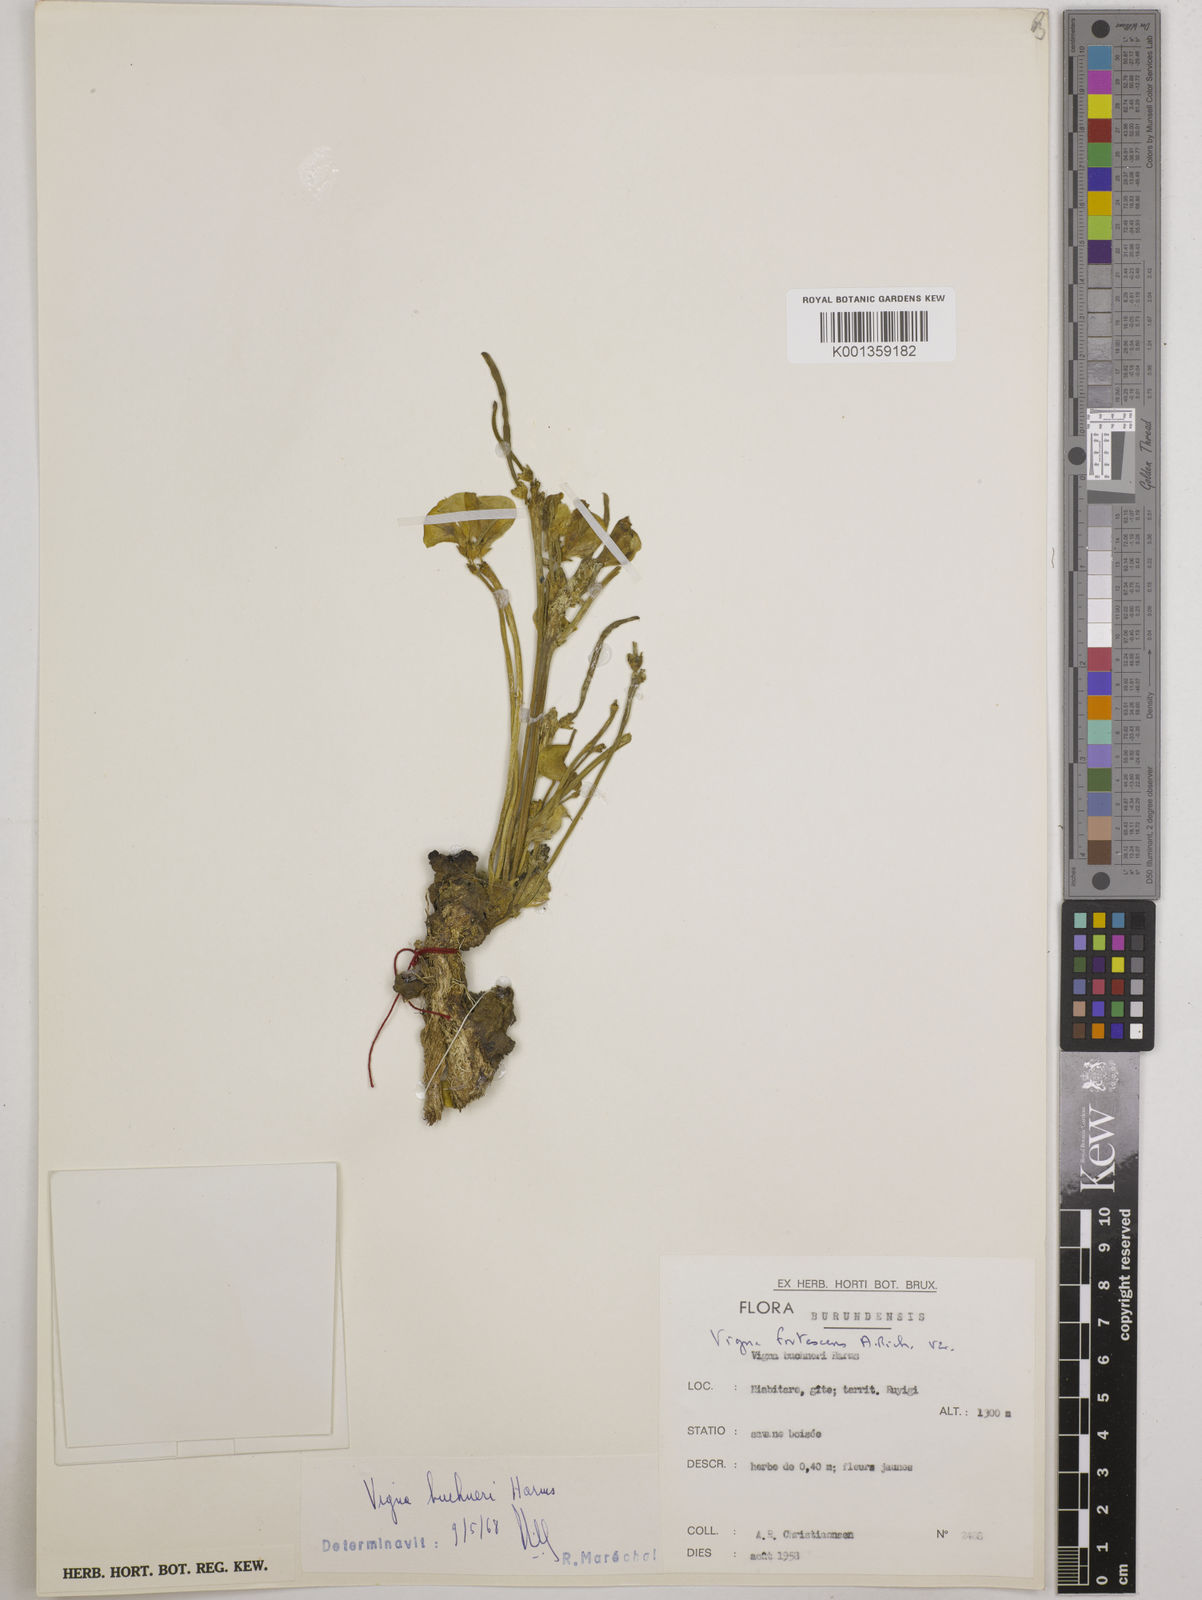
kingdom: Plantae
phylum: Tracheophyta
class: Magnoliopsida
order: Fabales
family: Fabaceae
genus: Vigna
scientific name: Vigna frutescens
